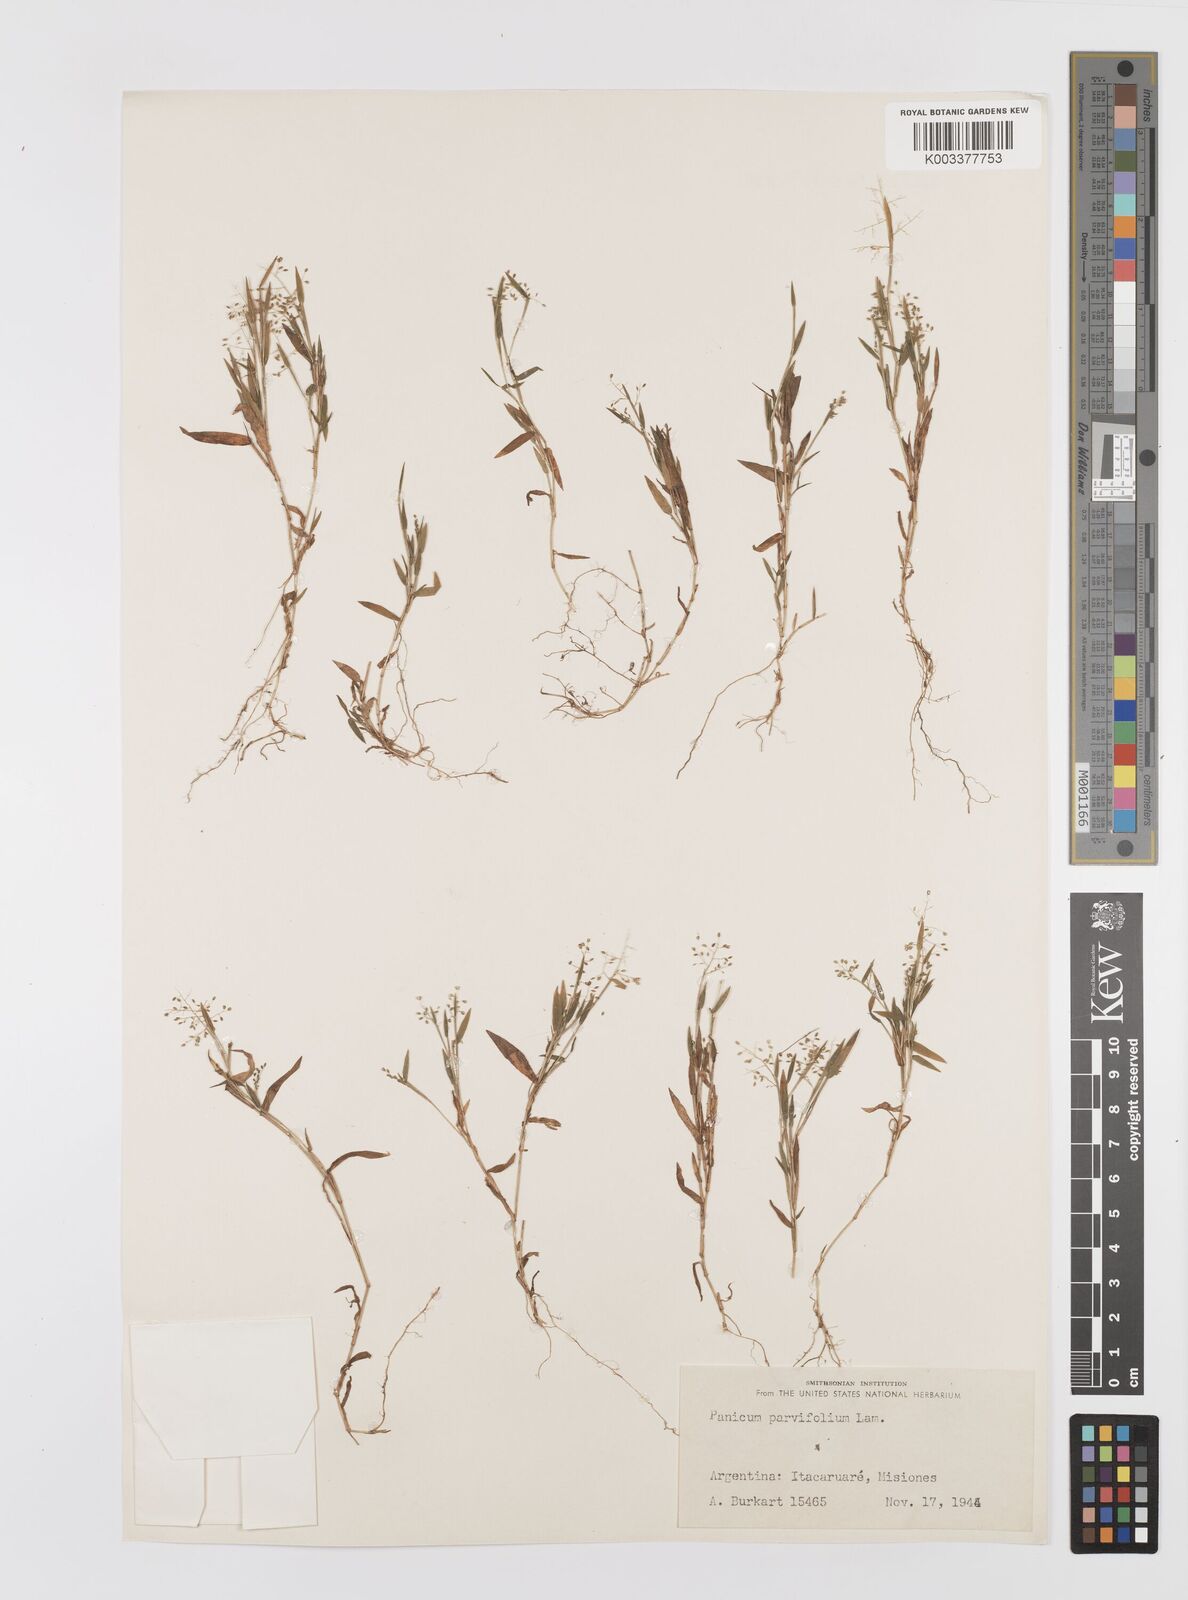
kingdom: Plantae
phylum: Tracheophyta
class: Liliopsida
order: Poales
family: Poaceae
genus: Trichanthecium
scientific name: Trichanthecium parvifolium
